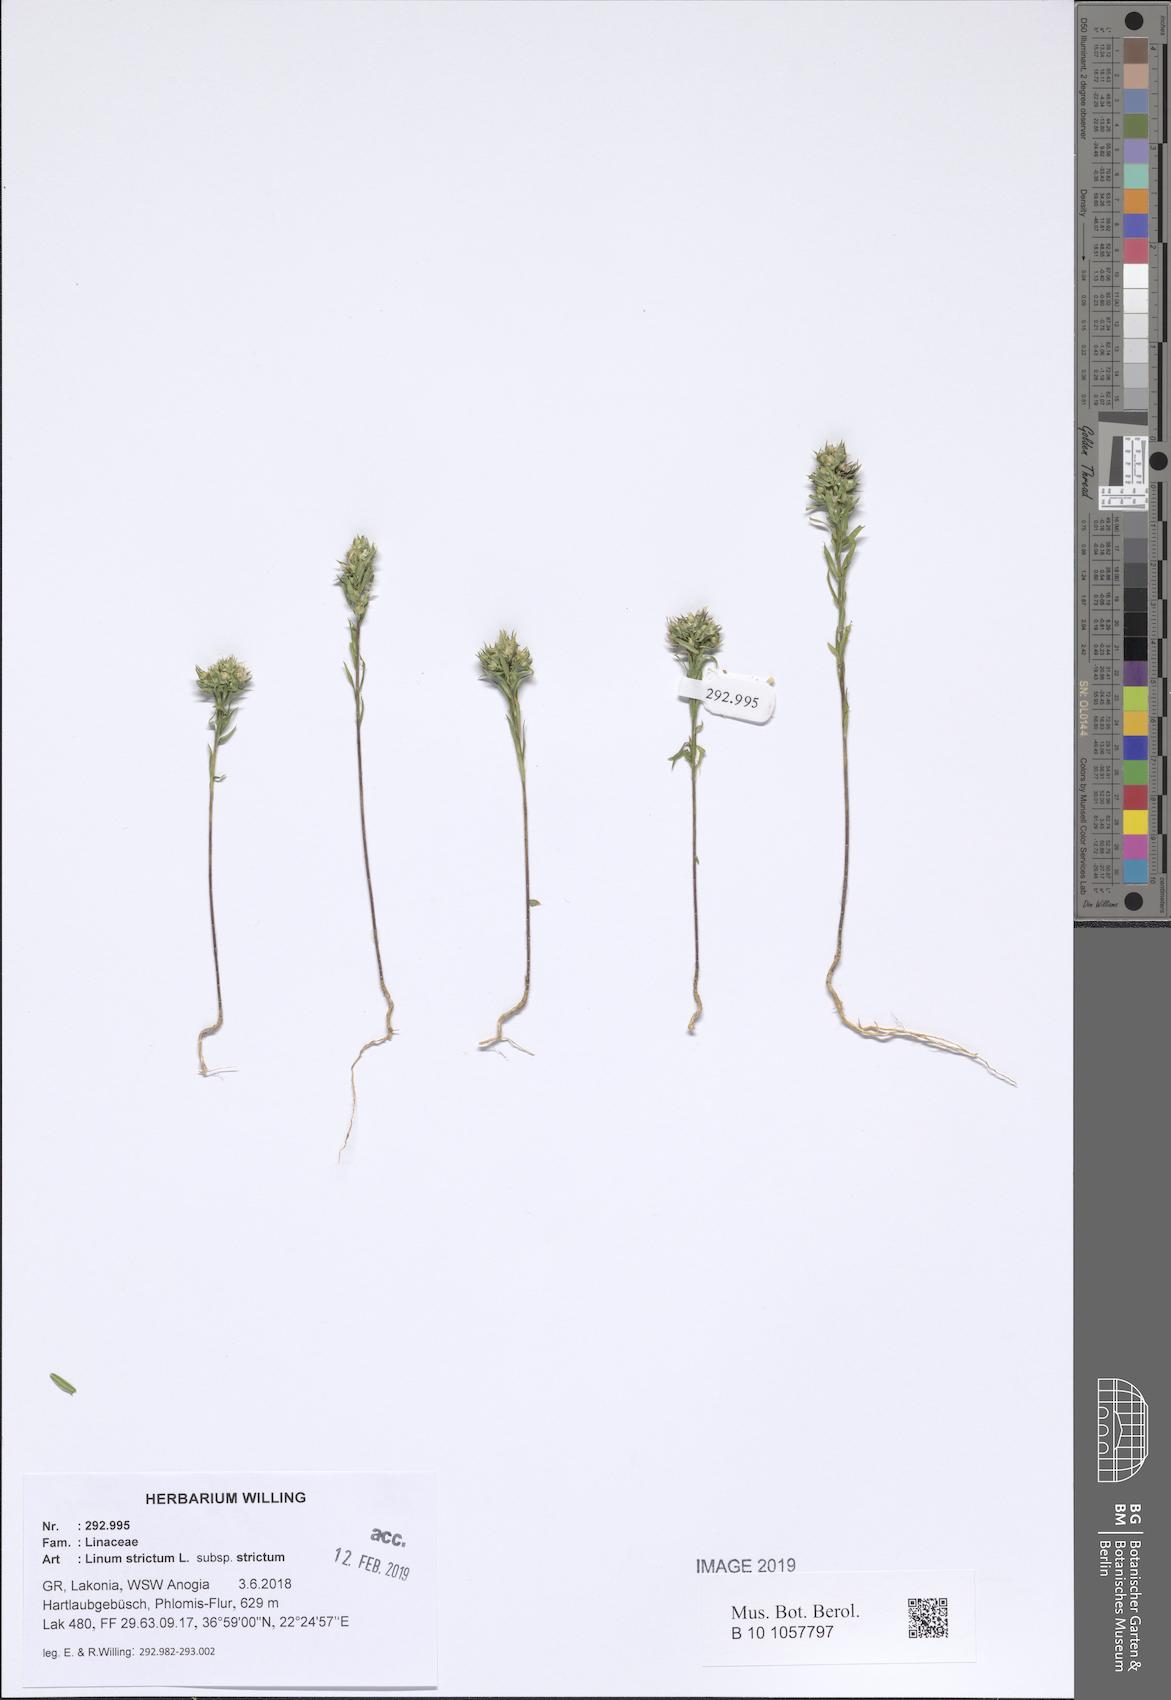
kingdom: Plantae
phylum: Tracheophyta
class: Magnoliopsida
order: Malpighiales
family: Linaceae
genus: Linum
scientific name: Linum strictum
